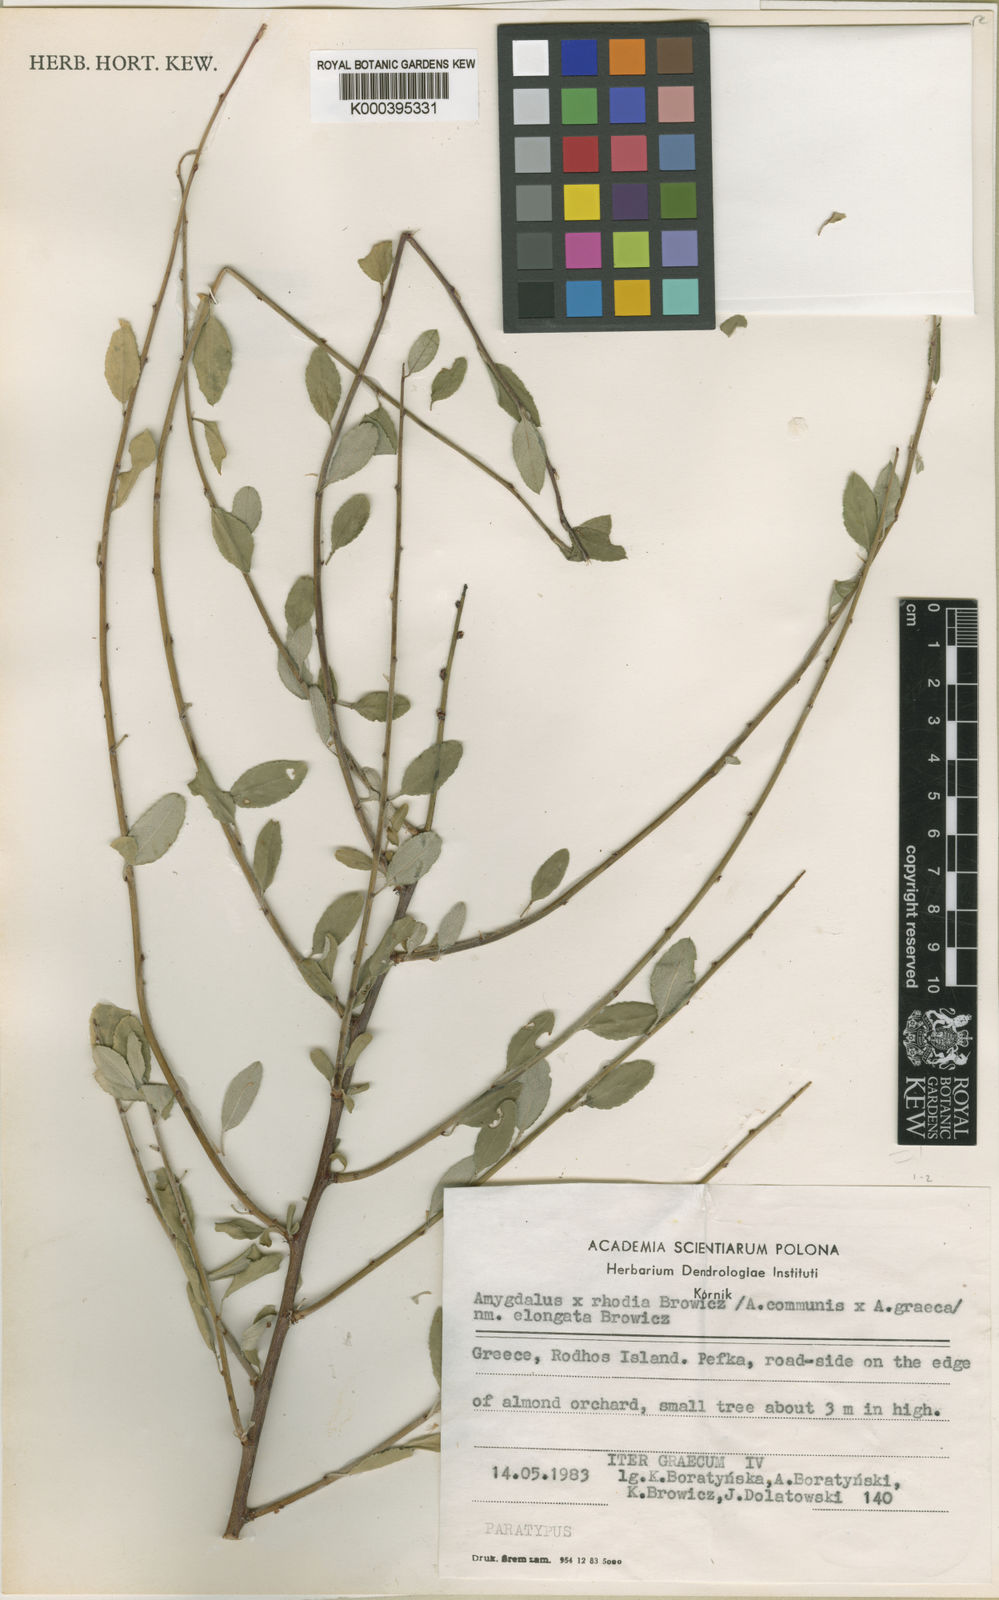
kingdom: Plantae
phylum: Tracheophyta
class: Magnoliopsida
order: Rosales
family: Rosaceae
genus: Prunus
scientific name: Prunus
